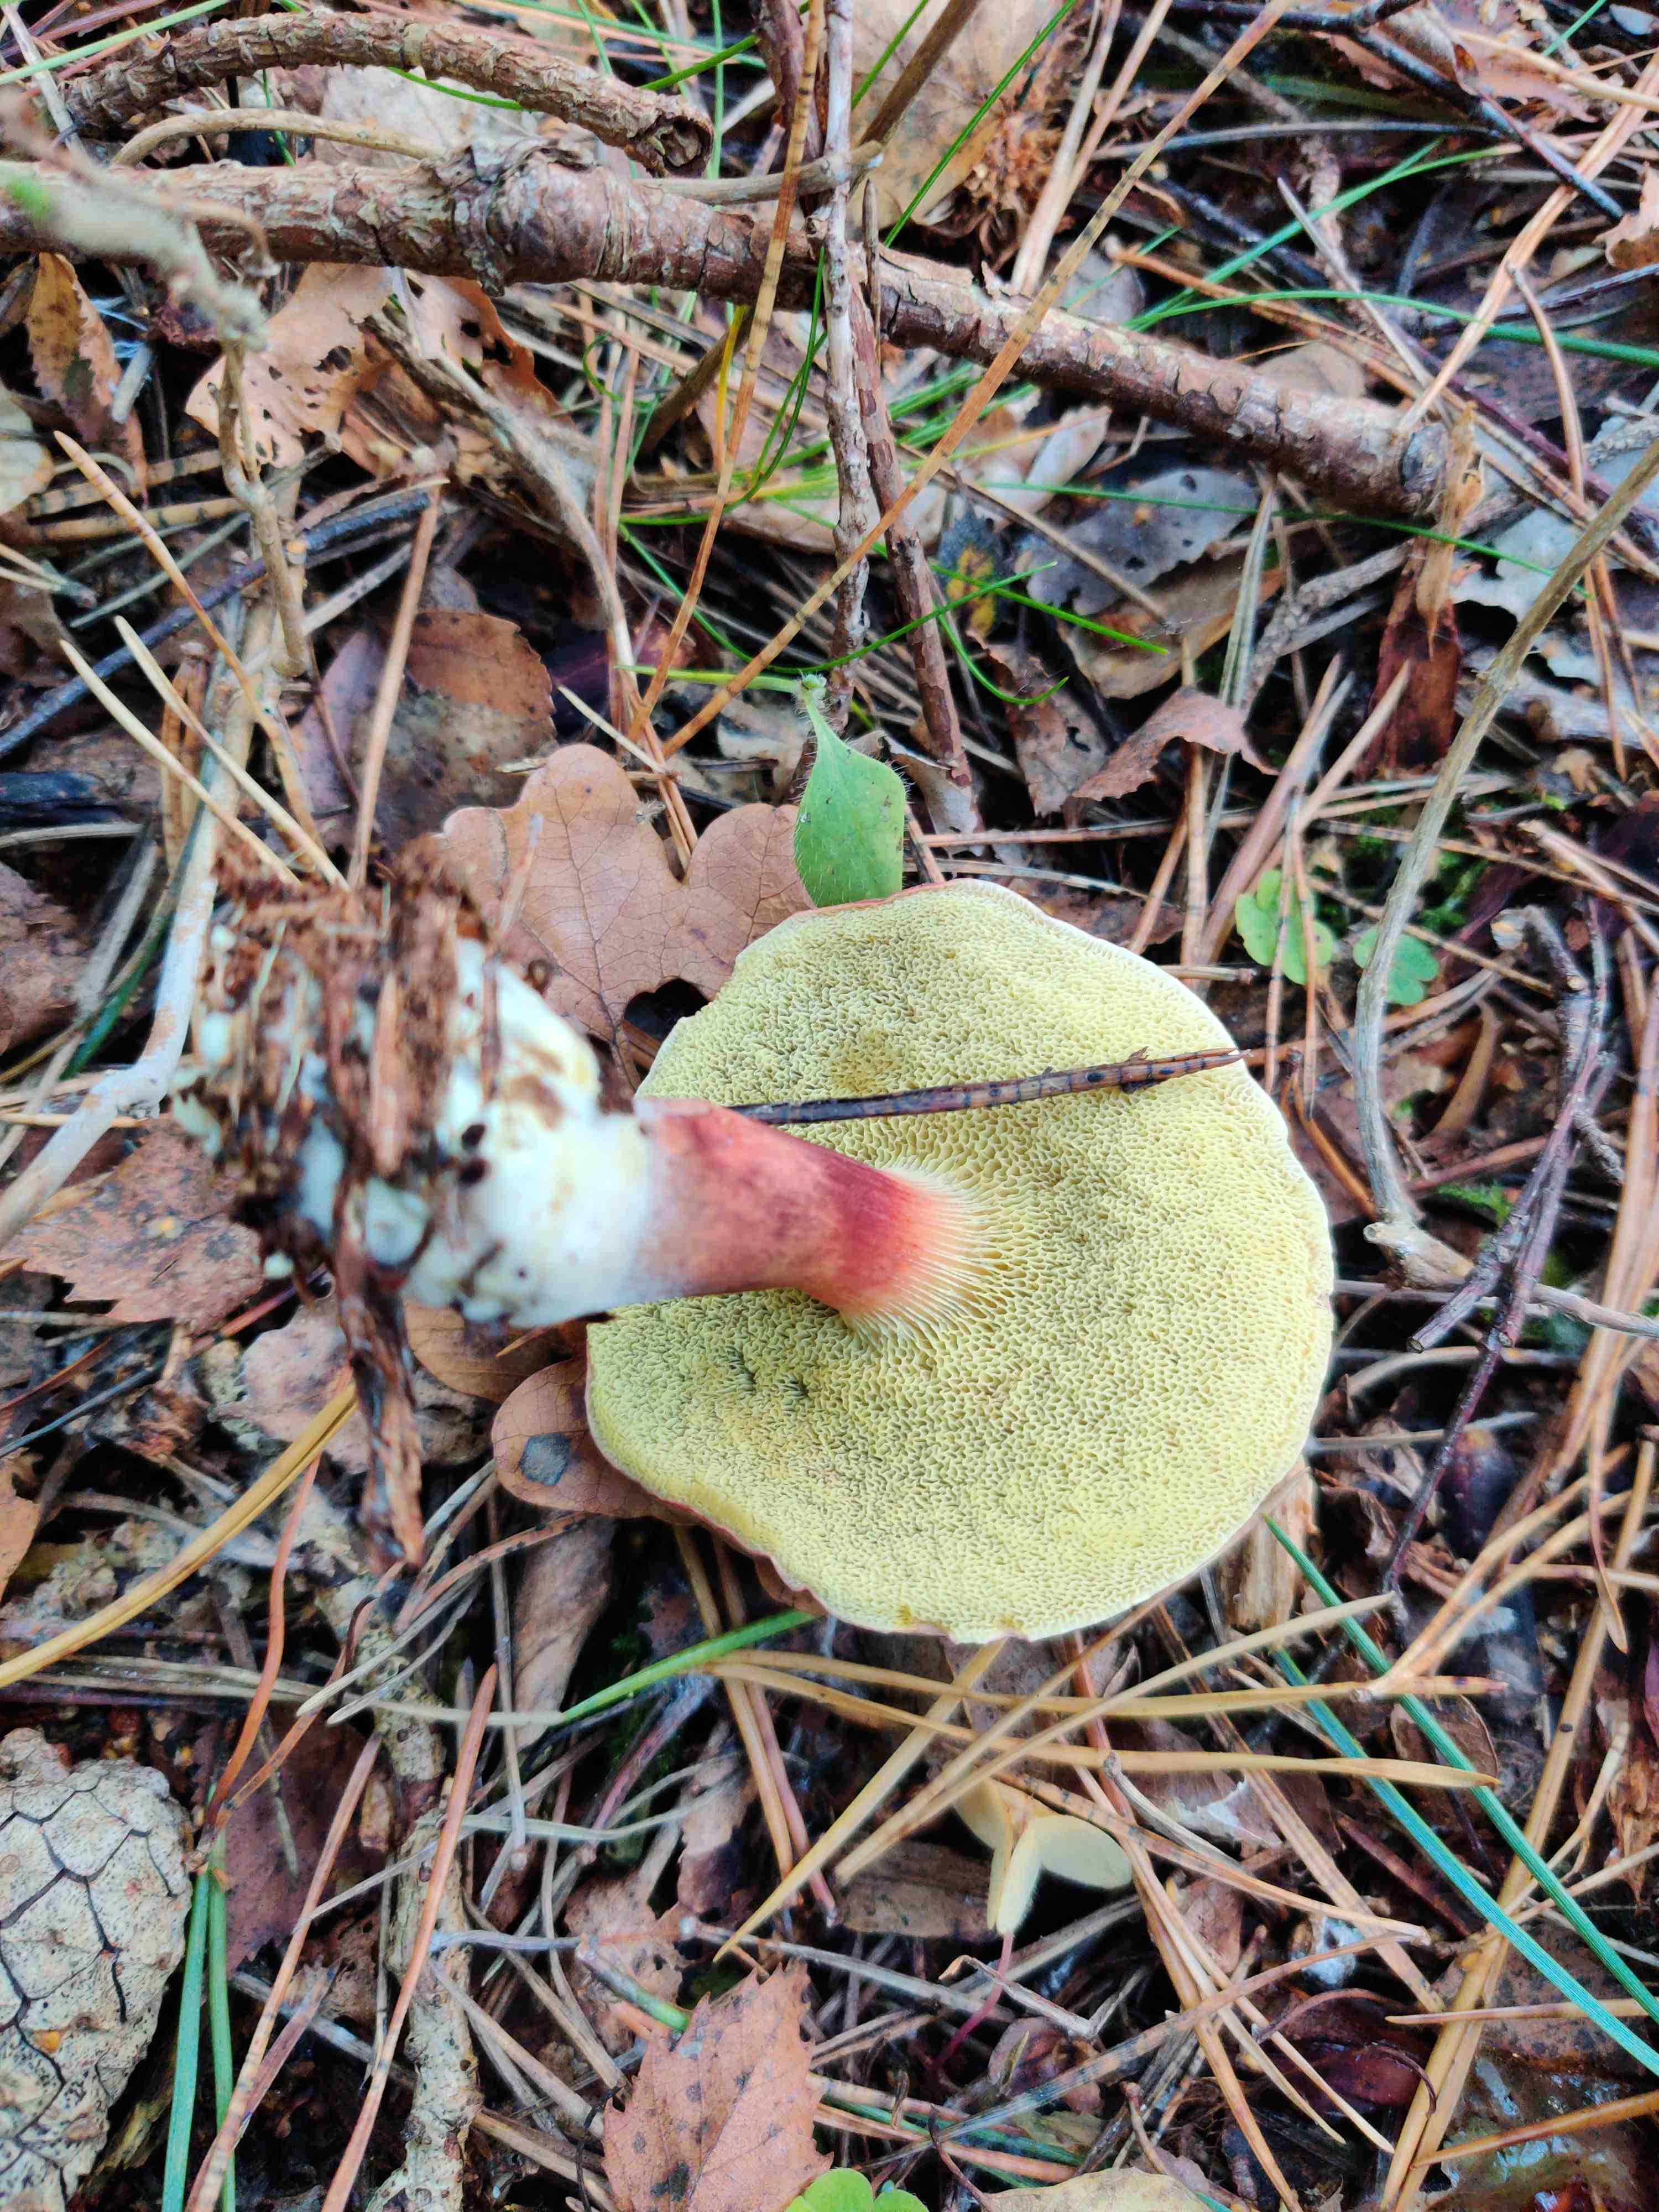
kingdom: Fungi
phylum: Basidiomycota
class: Agaricomycetes
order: Boletales
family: Boletaceae
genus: Xerocomellus
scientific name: Xerocomellus
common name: dværgrørhat
